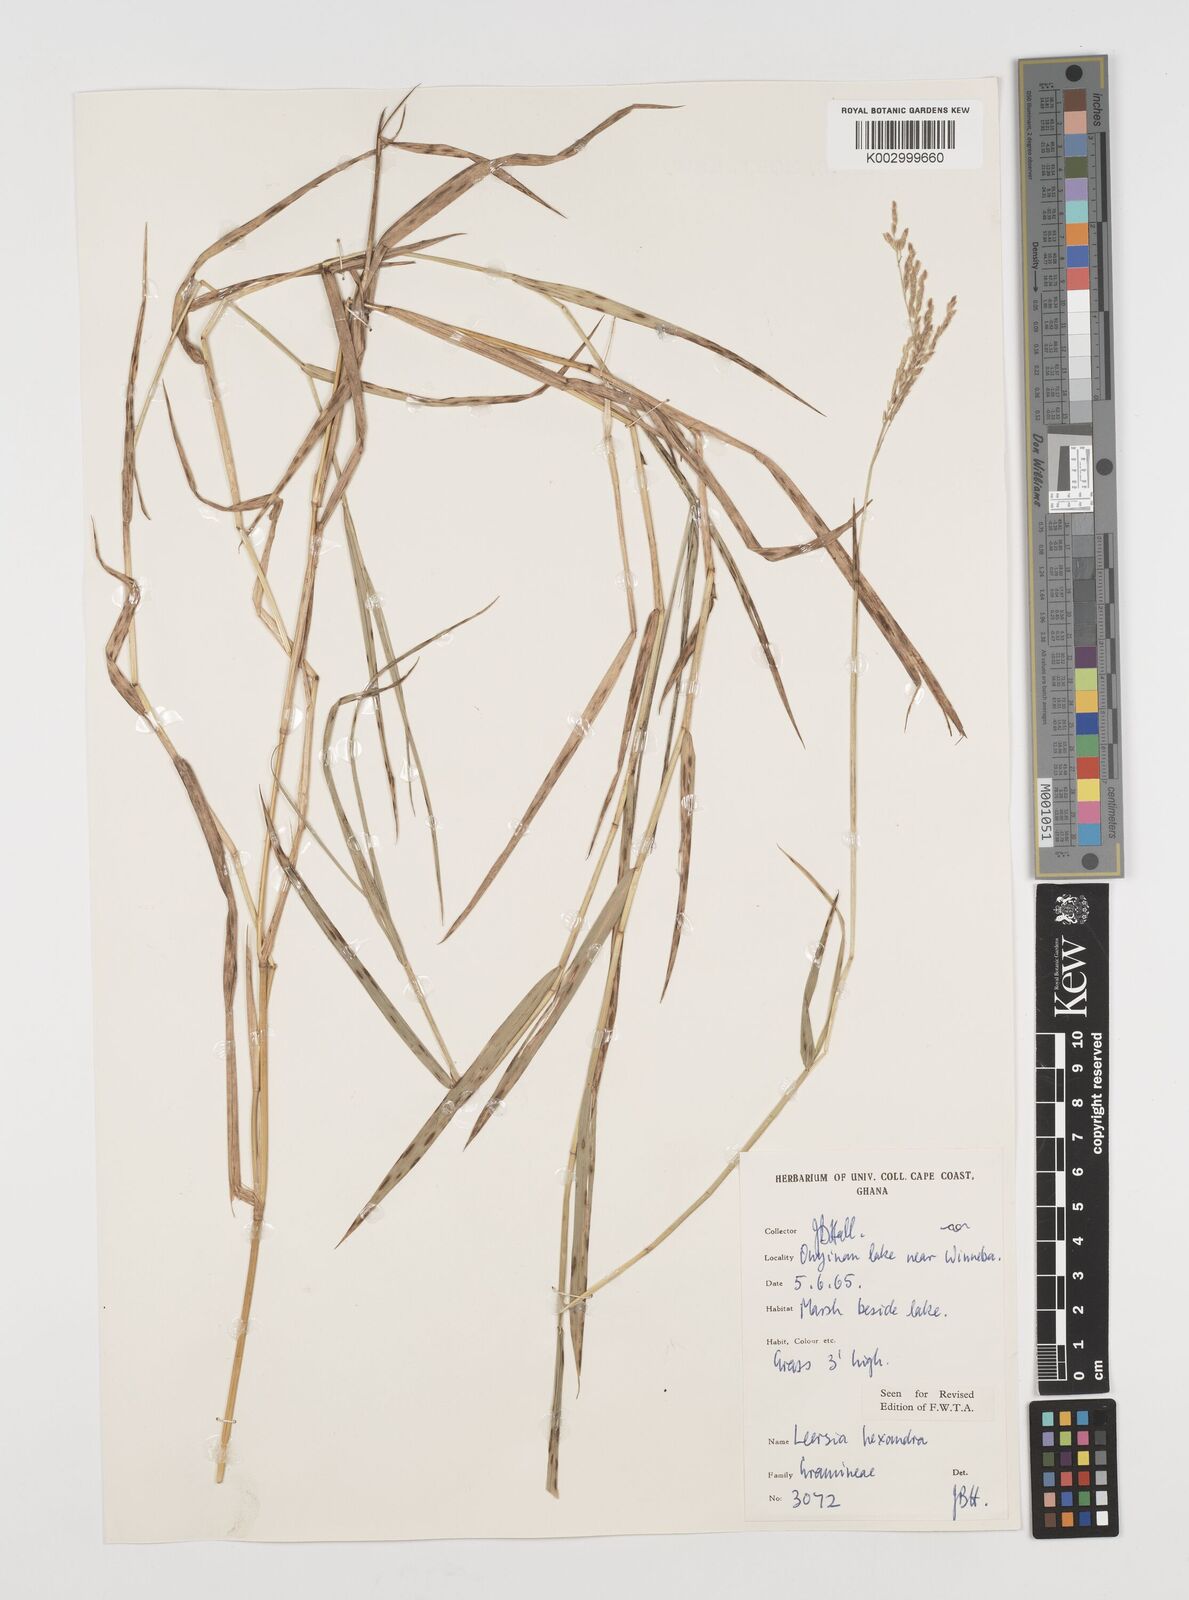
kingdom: Plantae
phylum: Tracheophyta
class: Liliopsida
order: Poales
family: Poaceae
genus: Leersia
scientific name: Leersia hexandra
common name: Southern cut grass
